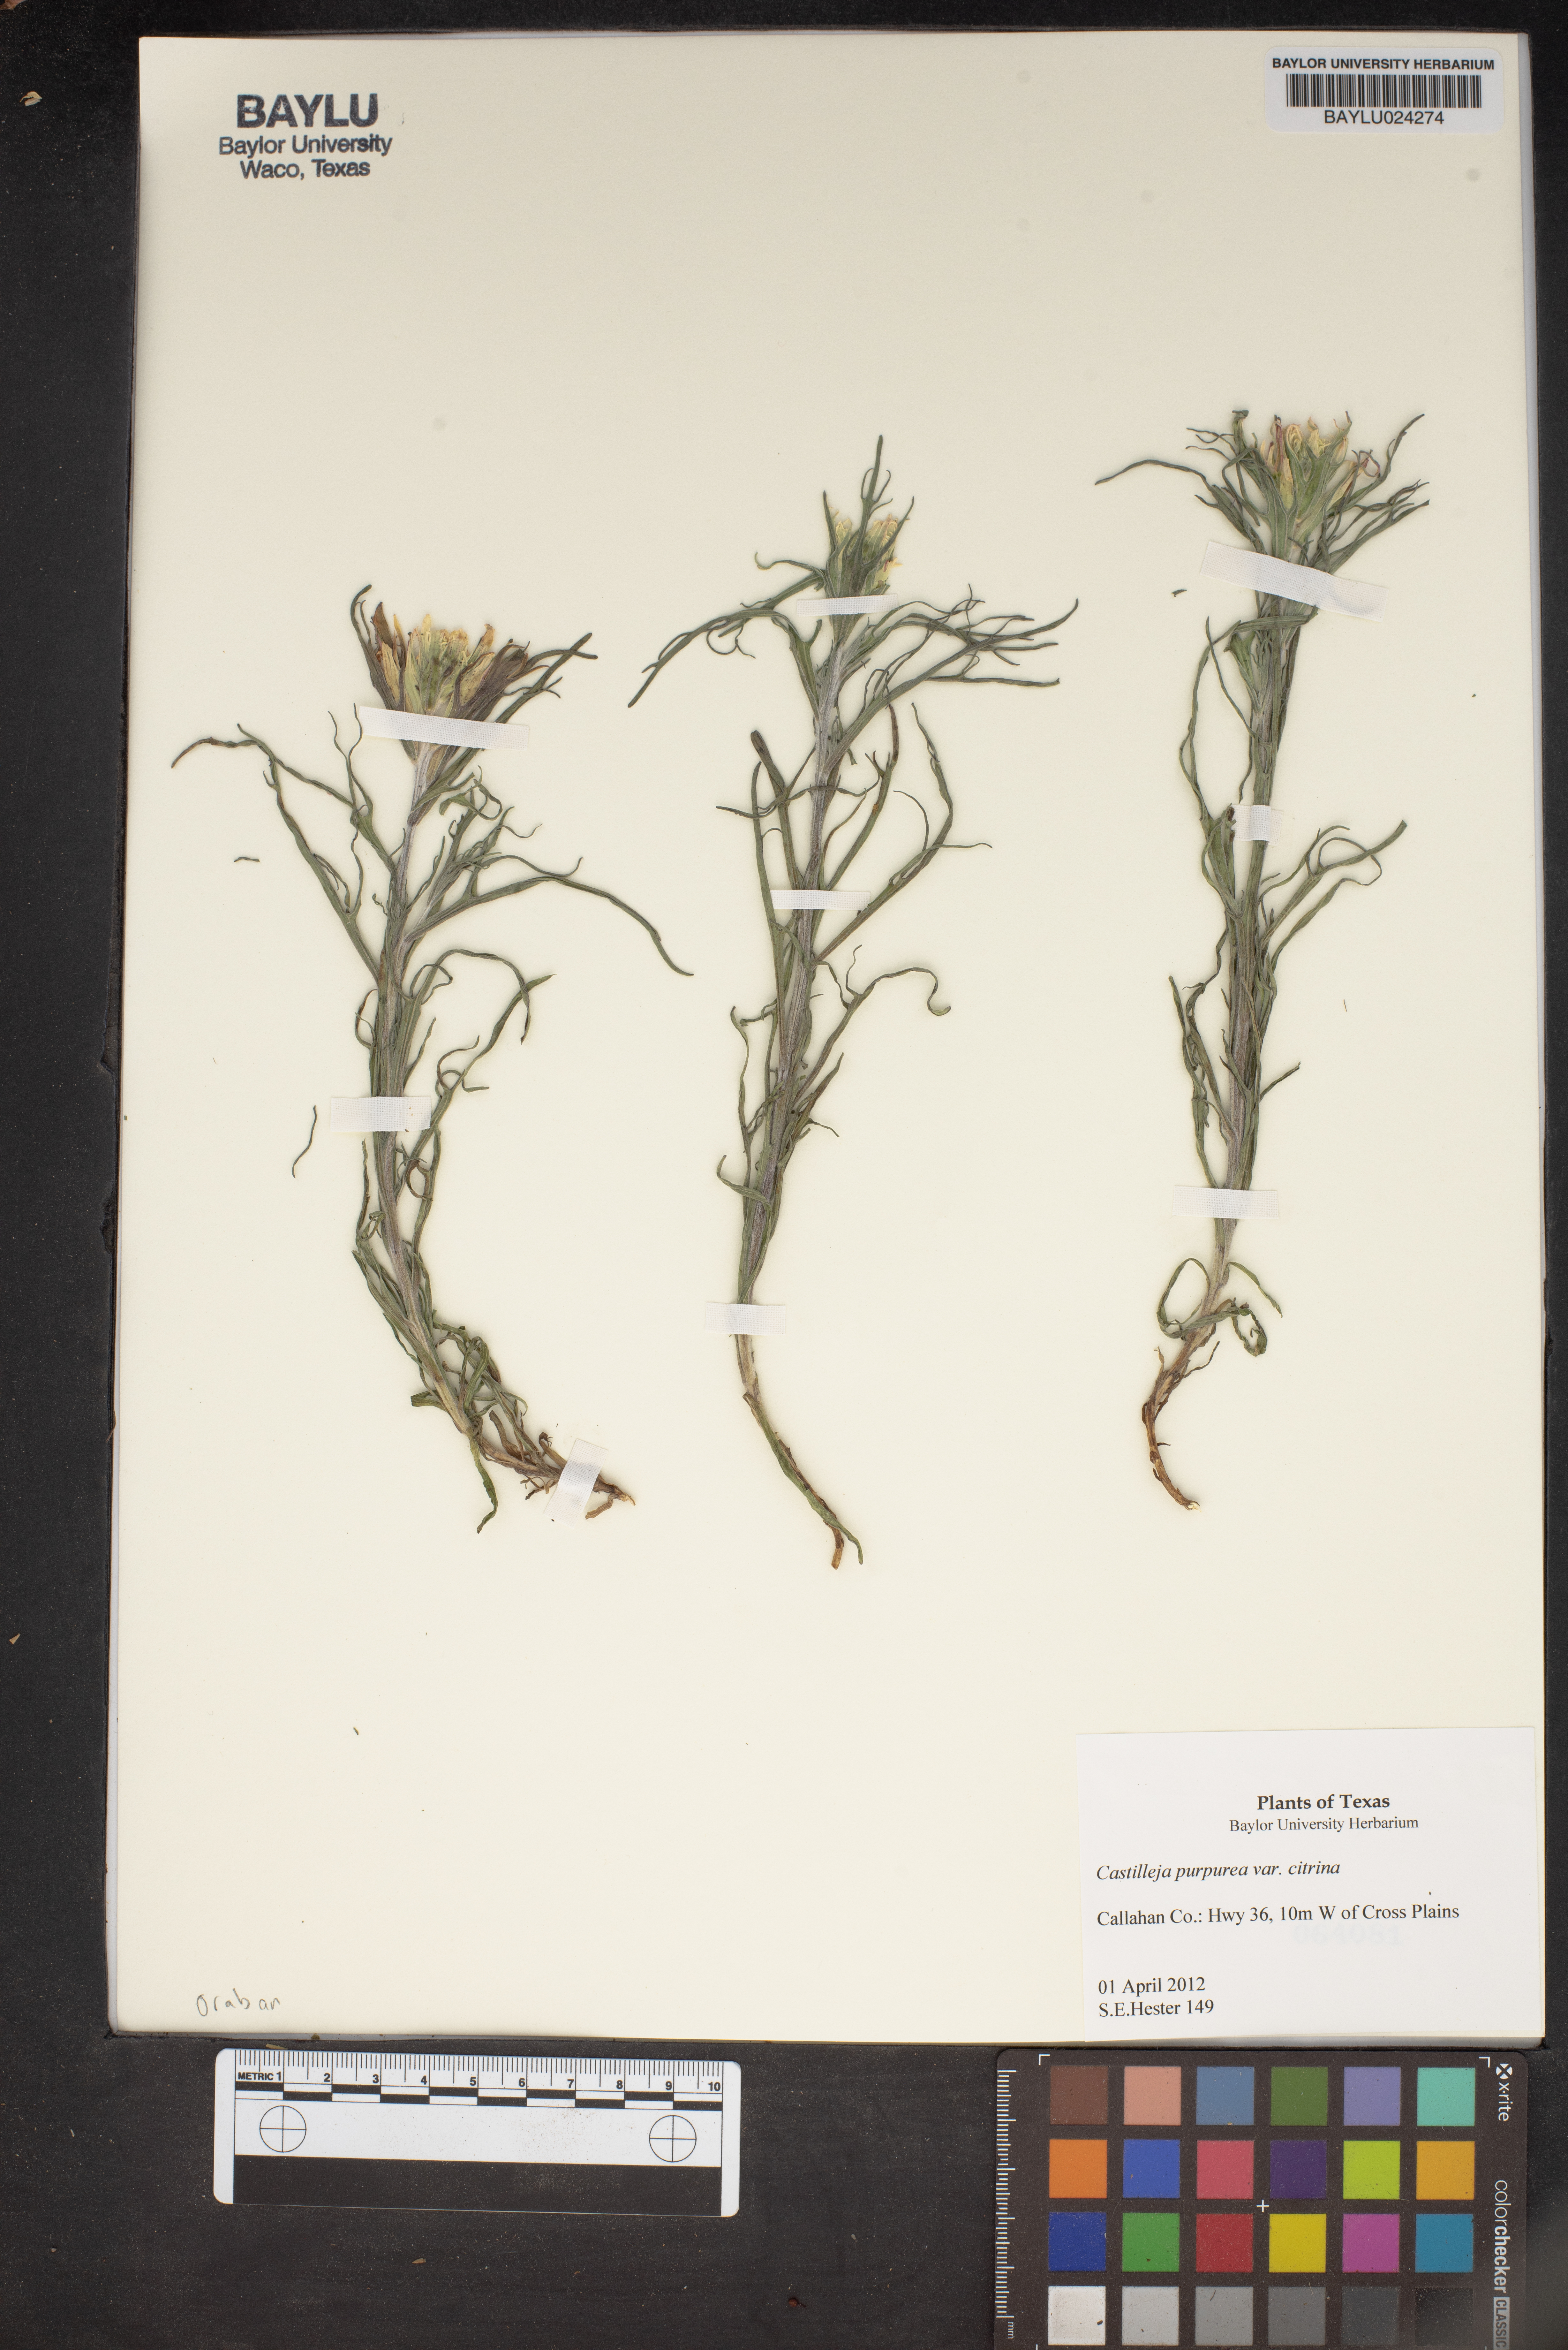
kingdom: Plantae
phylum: Tracheophyta
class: Magnoliopsida
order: Lamiales
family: Orobanchaceae
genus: Castilleja
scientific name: Castilleja citrina
